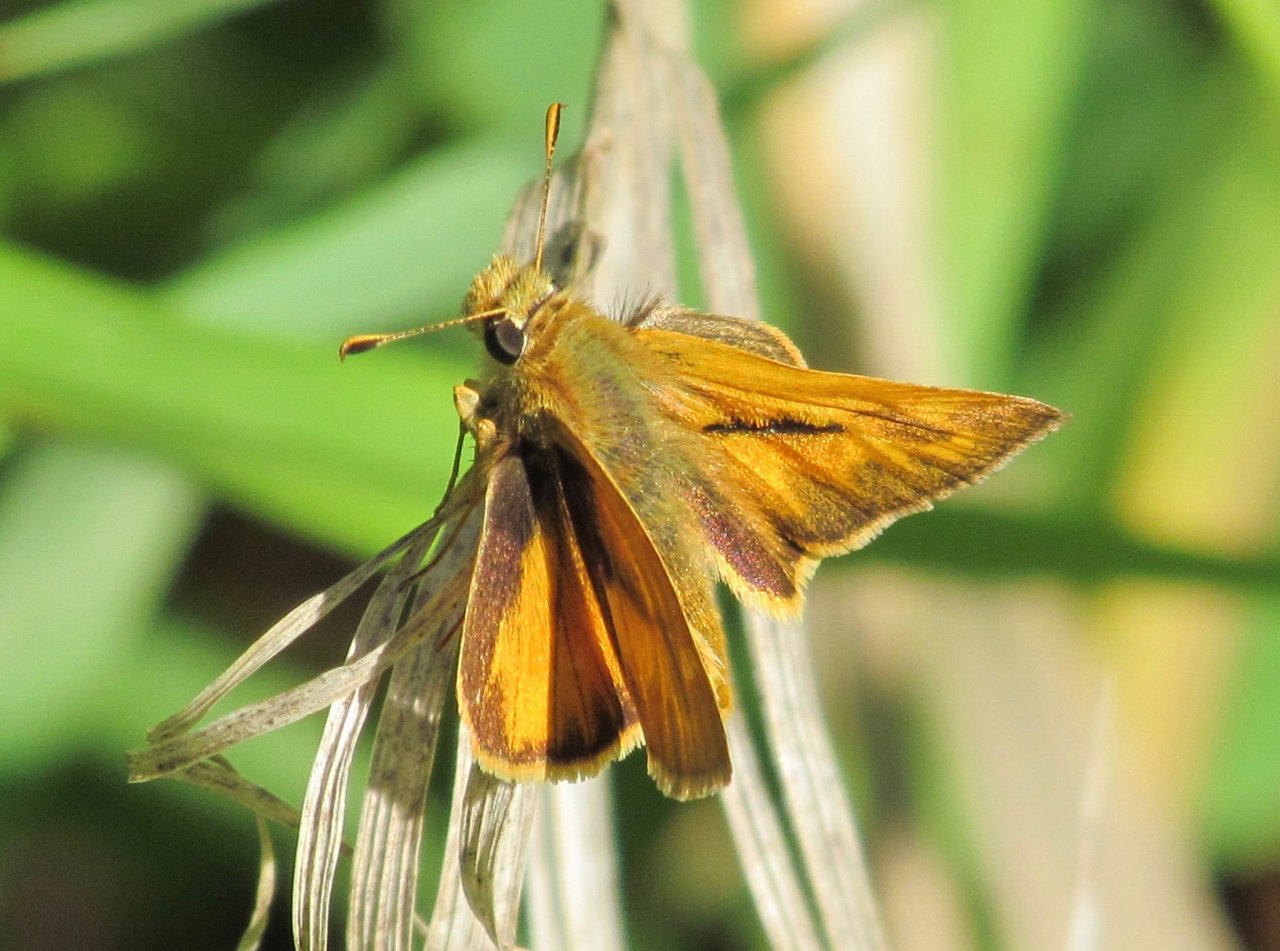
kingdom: Animalia
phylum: Arthropoda
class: Insecta
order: Lepidoptera
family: Hesperiidae
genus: Polites
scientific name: Polites
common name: Long Dash Skipper
